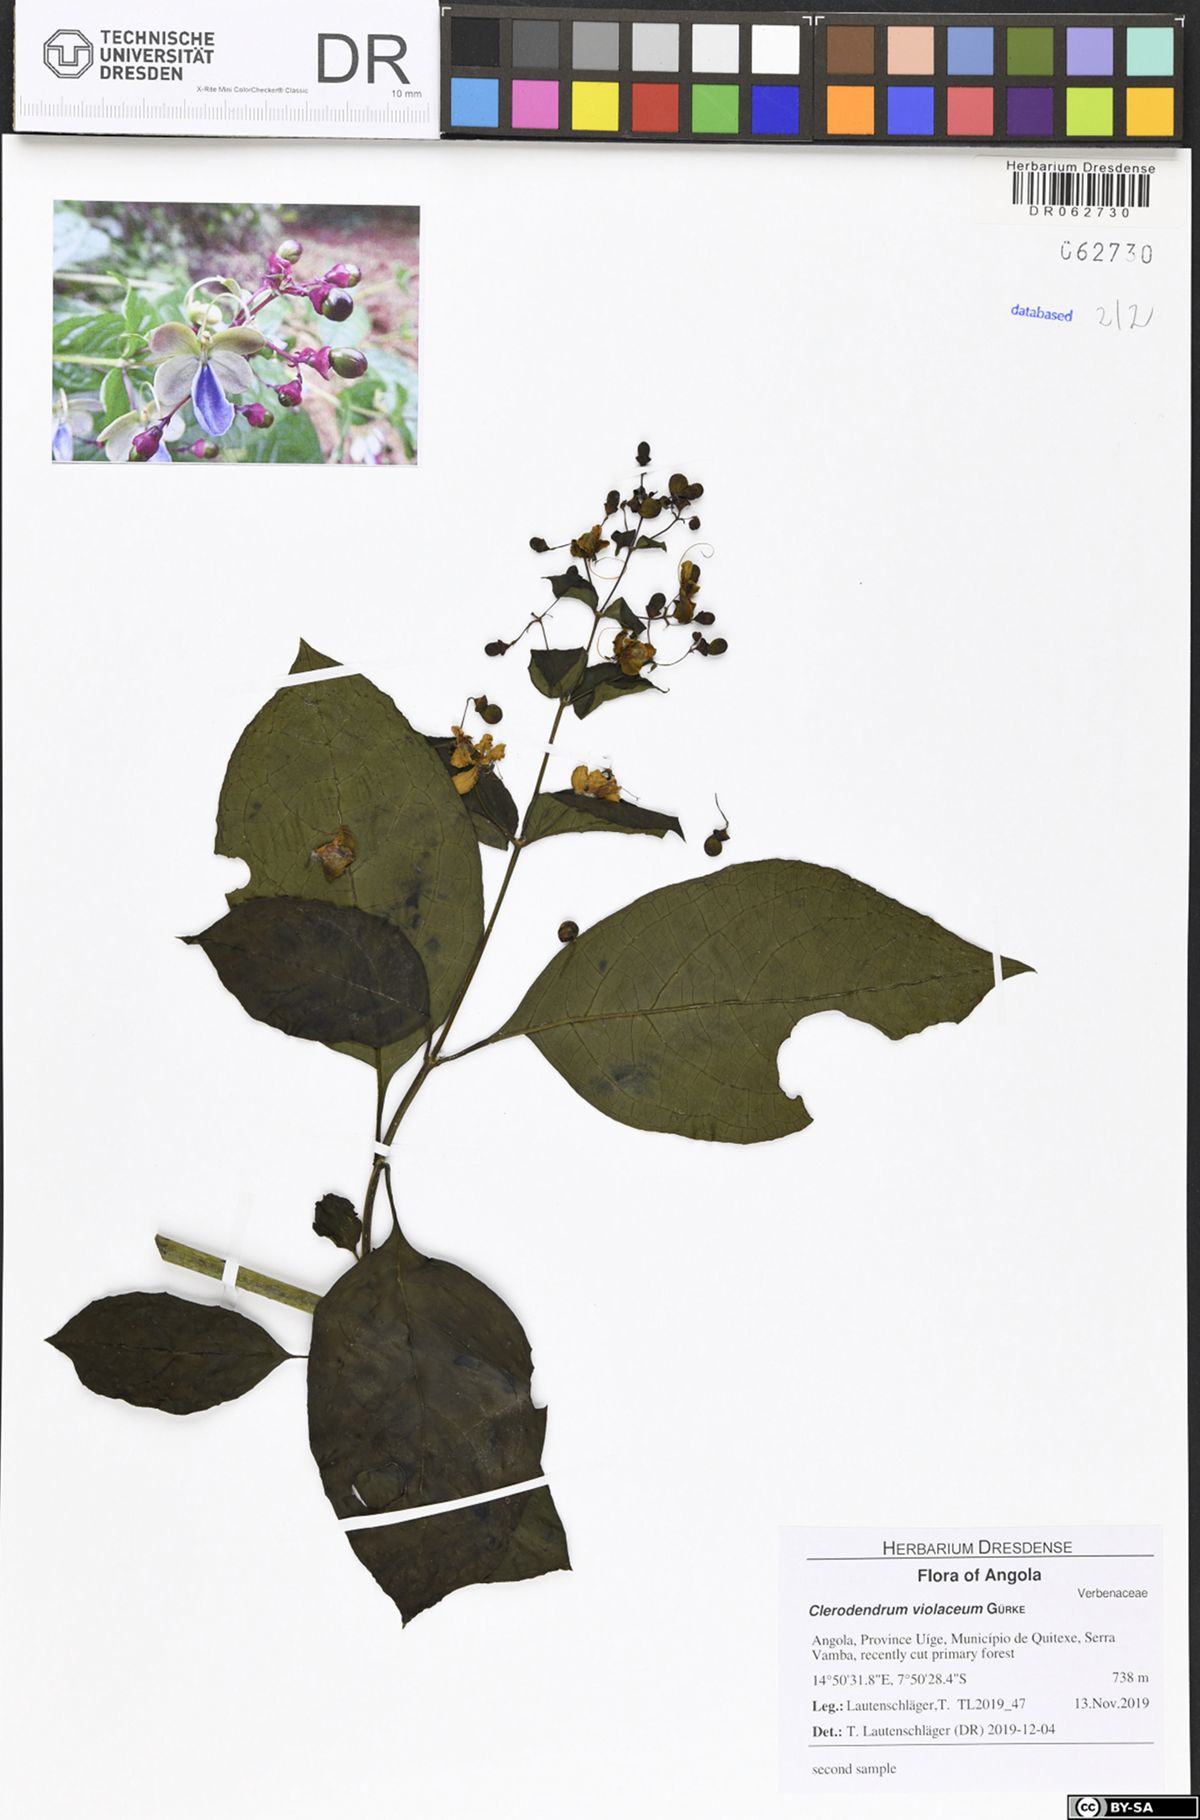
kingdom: Plantae
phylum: Tracheophyta
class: Magnoliopsida
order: Lamiales
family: Lamiaceae
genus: Rotheca
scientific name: Rotheca violacea
